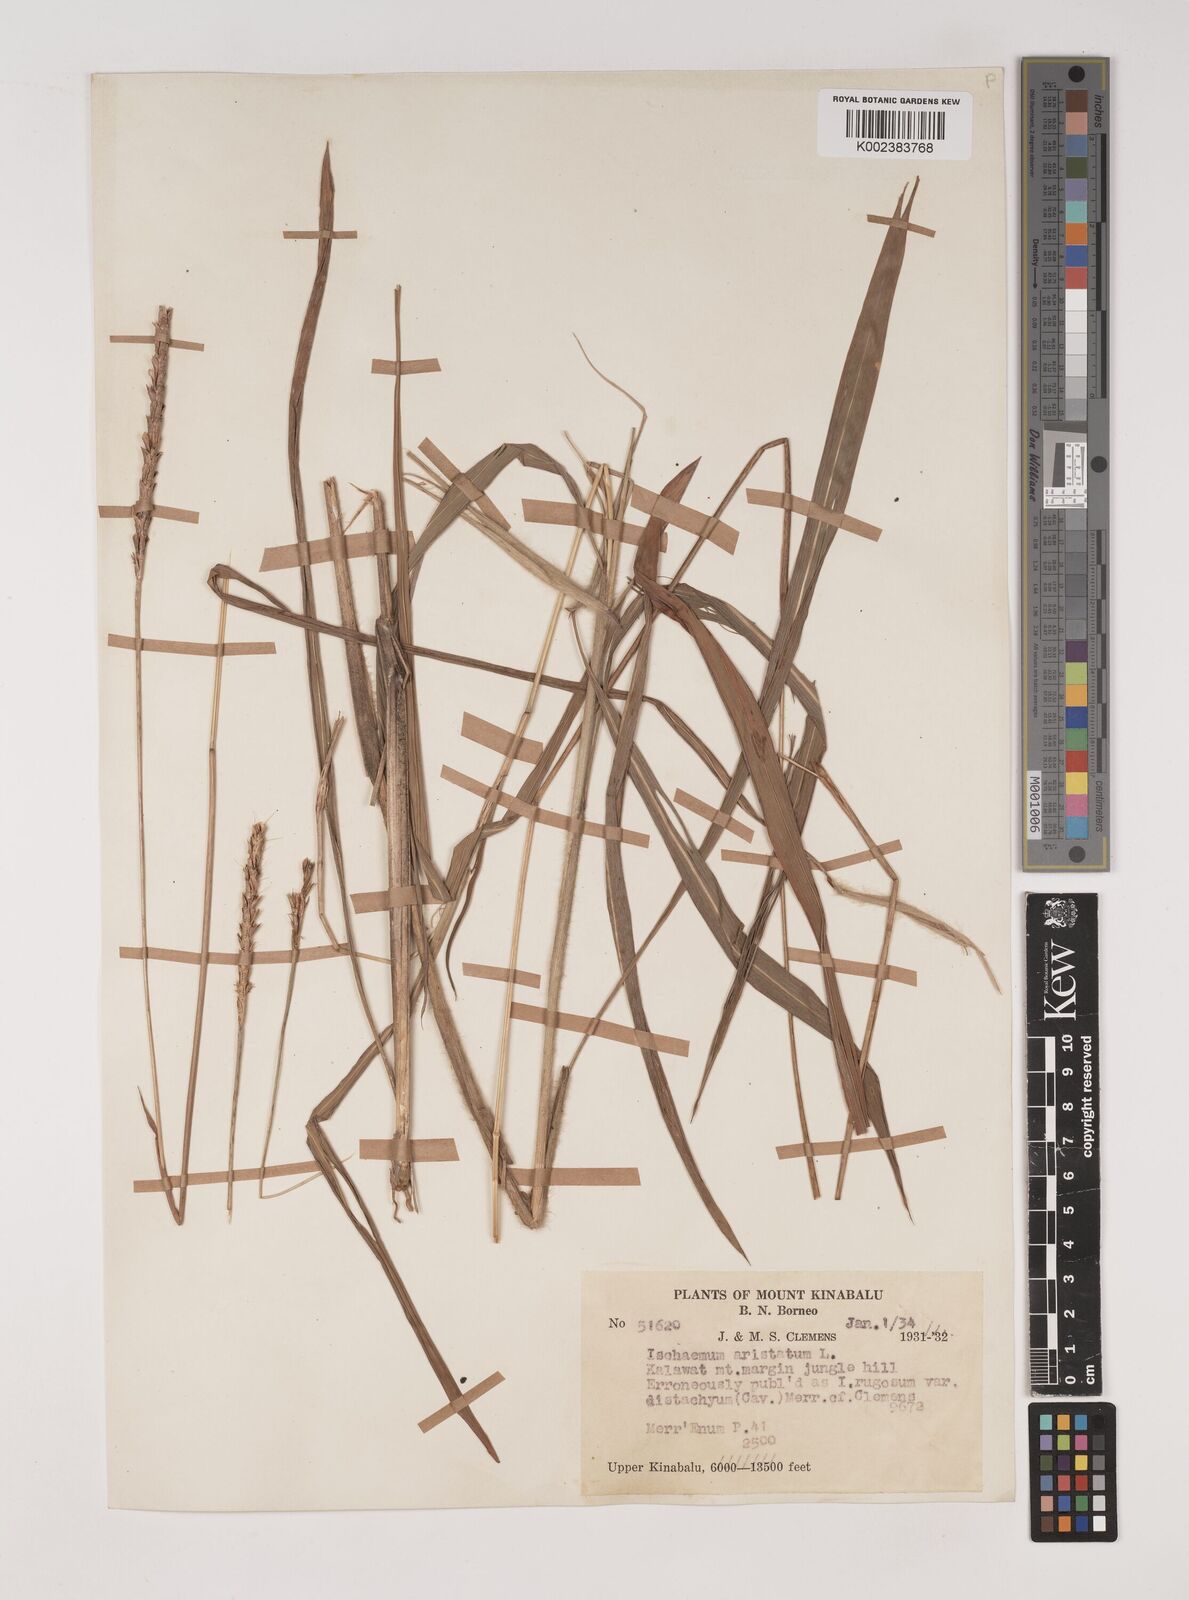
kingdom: Plantae
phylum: Tracheophyta
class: Liliopsida
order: Poales
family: Poaceae
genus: Polytrias
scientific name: Polytrias indica
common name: Indian murainagrass
